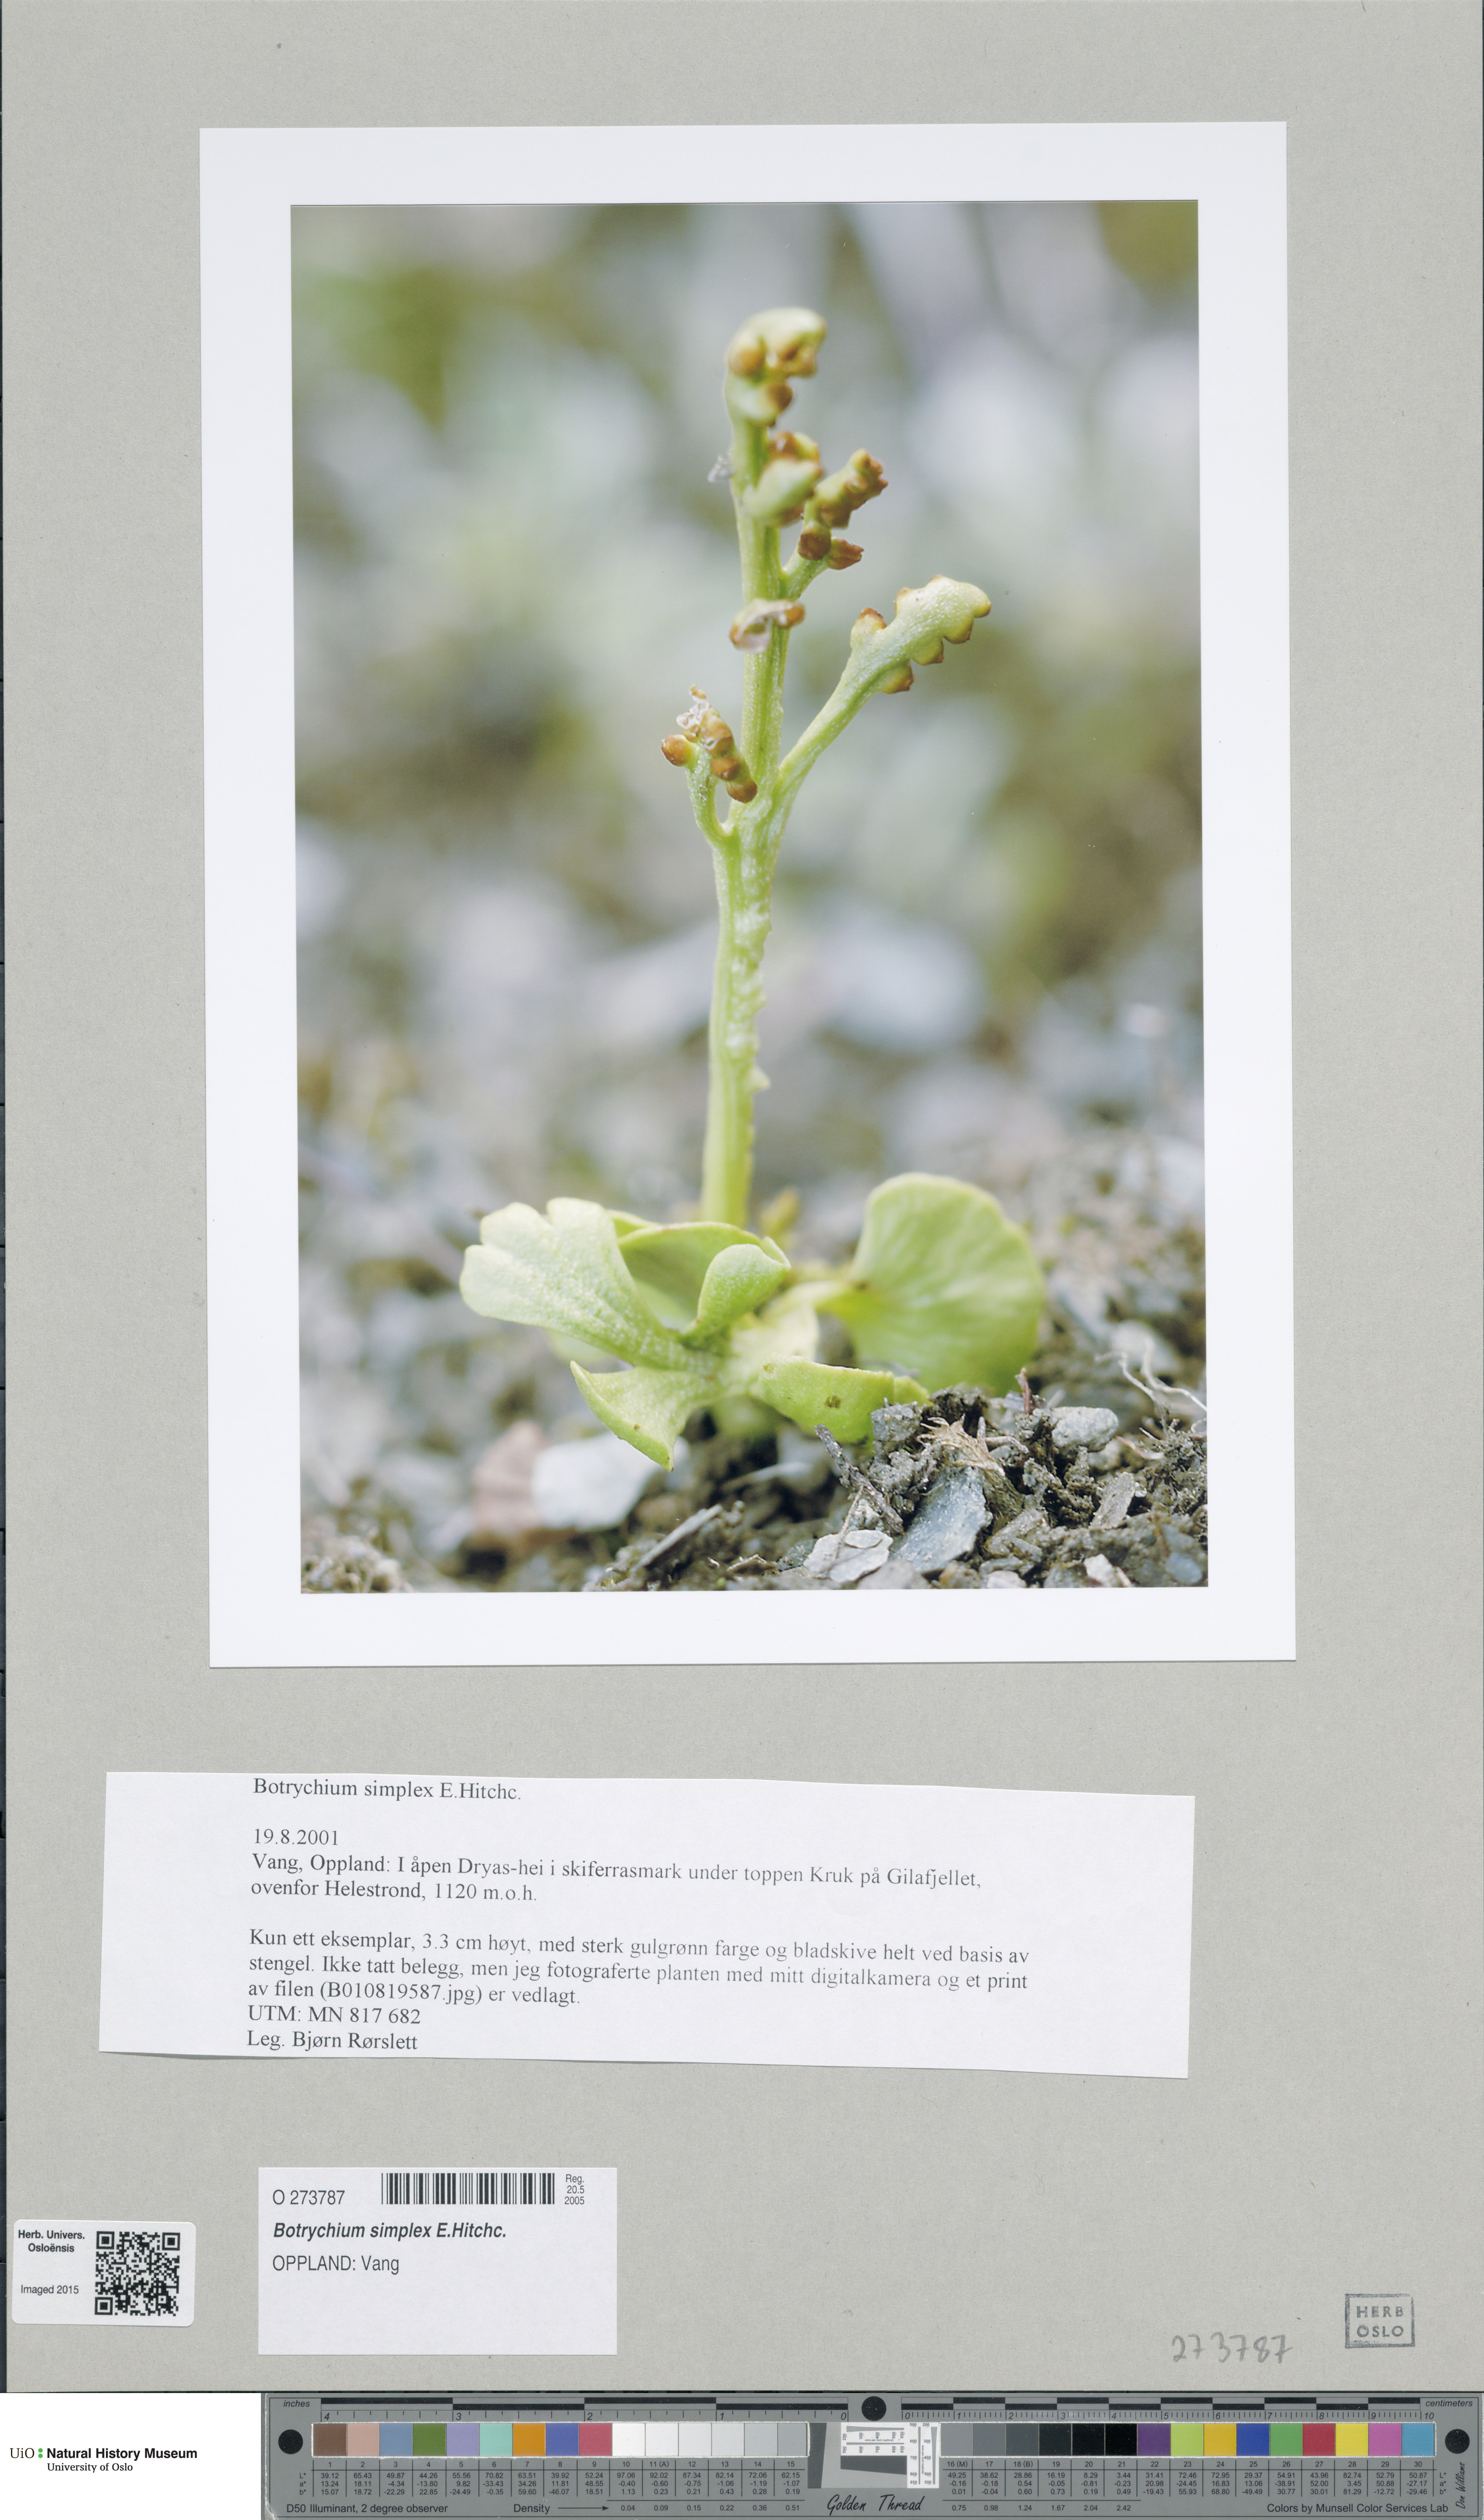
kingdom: Plantae
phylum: Tracheophyta
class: Polypodiopsida
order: Ophioglossales
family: Ophioglossaceae
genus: Botrychium
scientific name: Botrychium simplex
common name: Least moonwort
